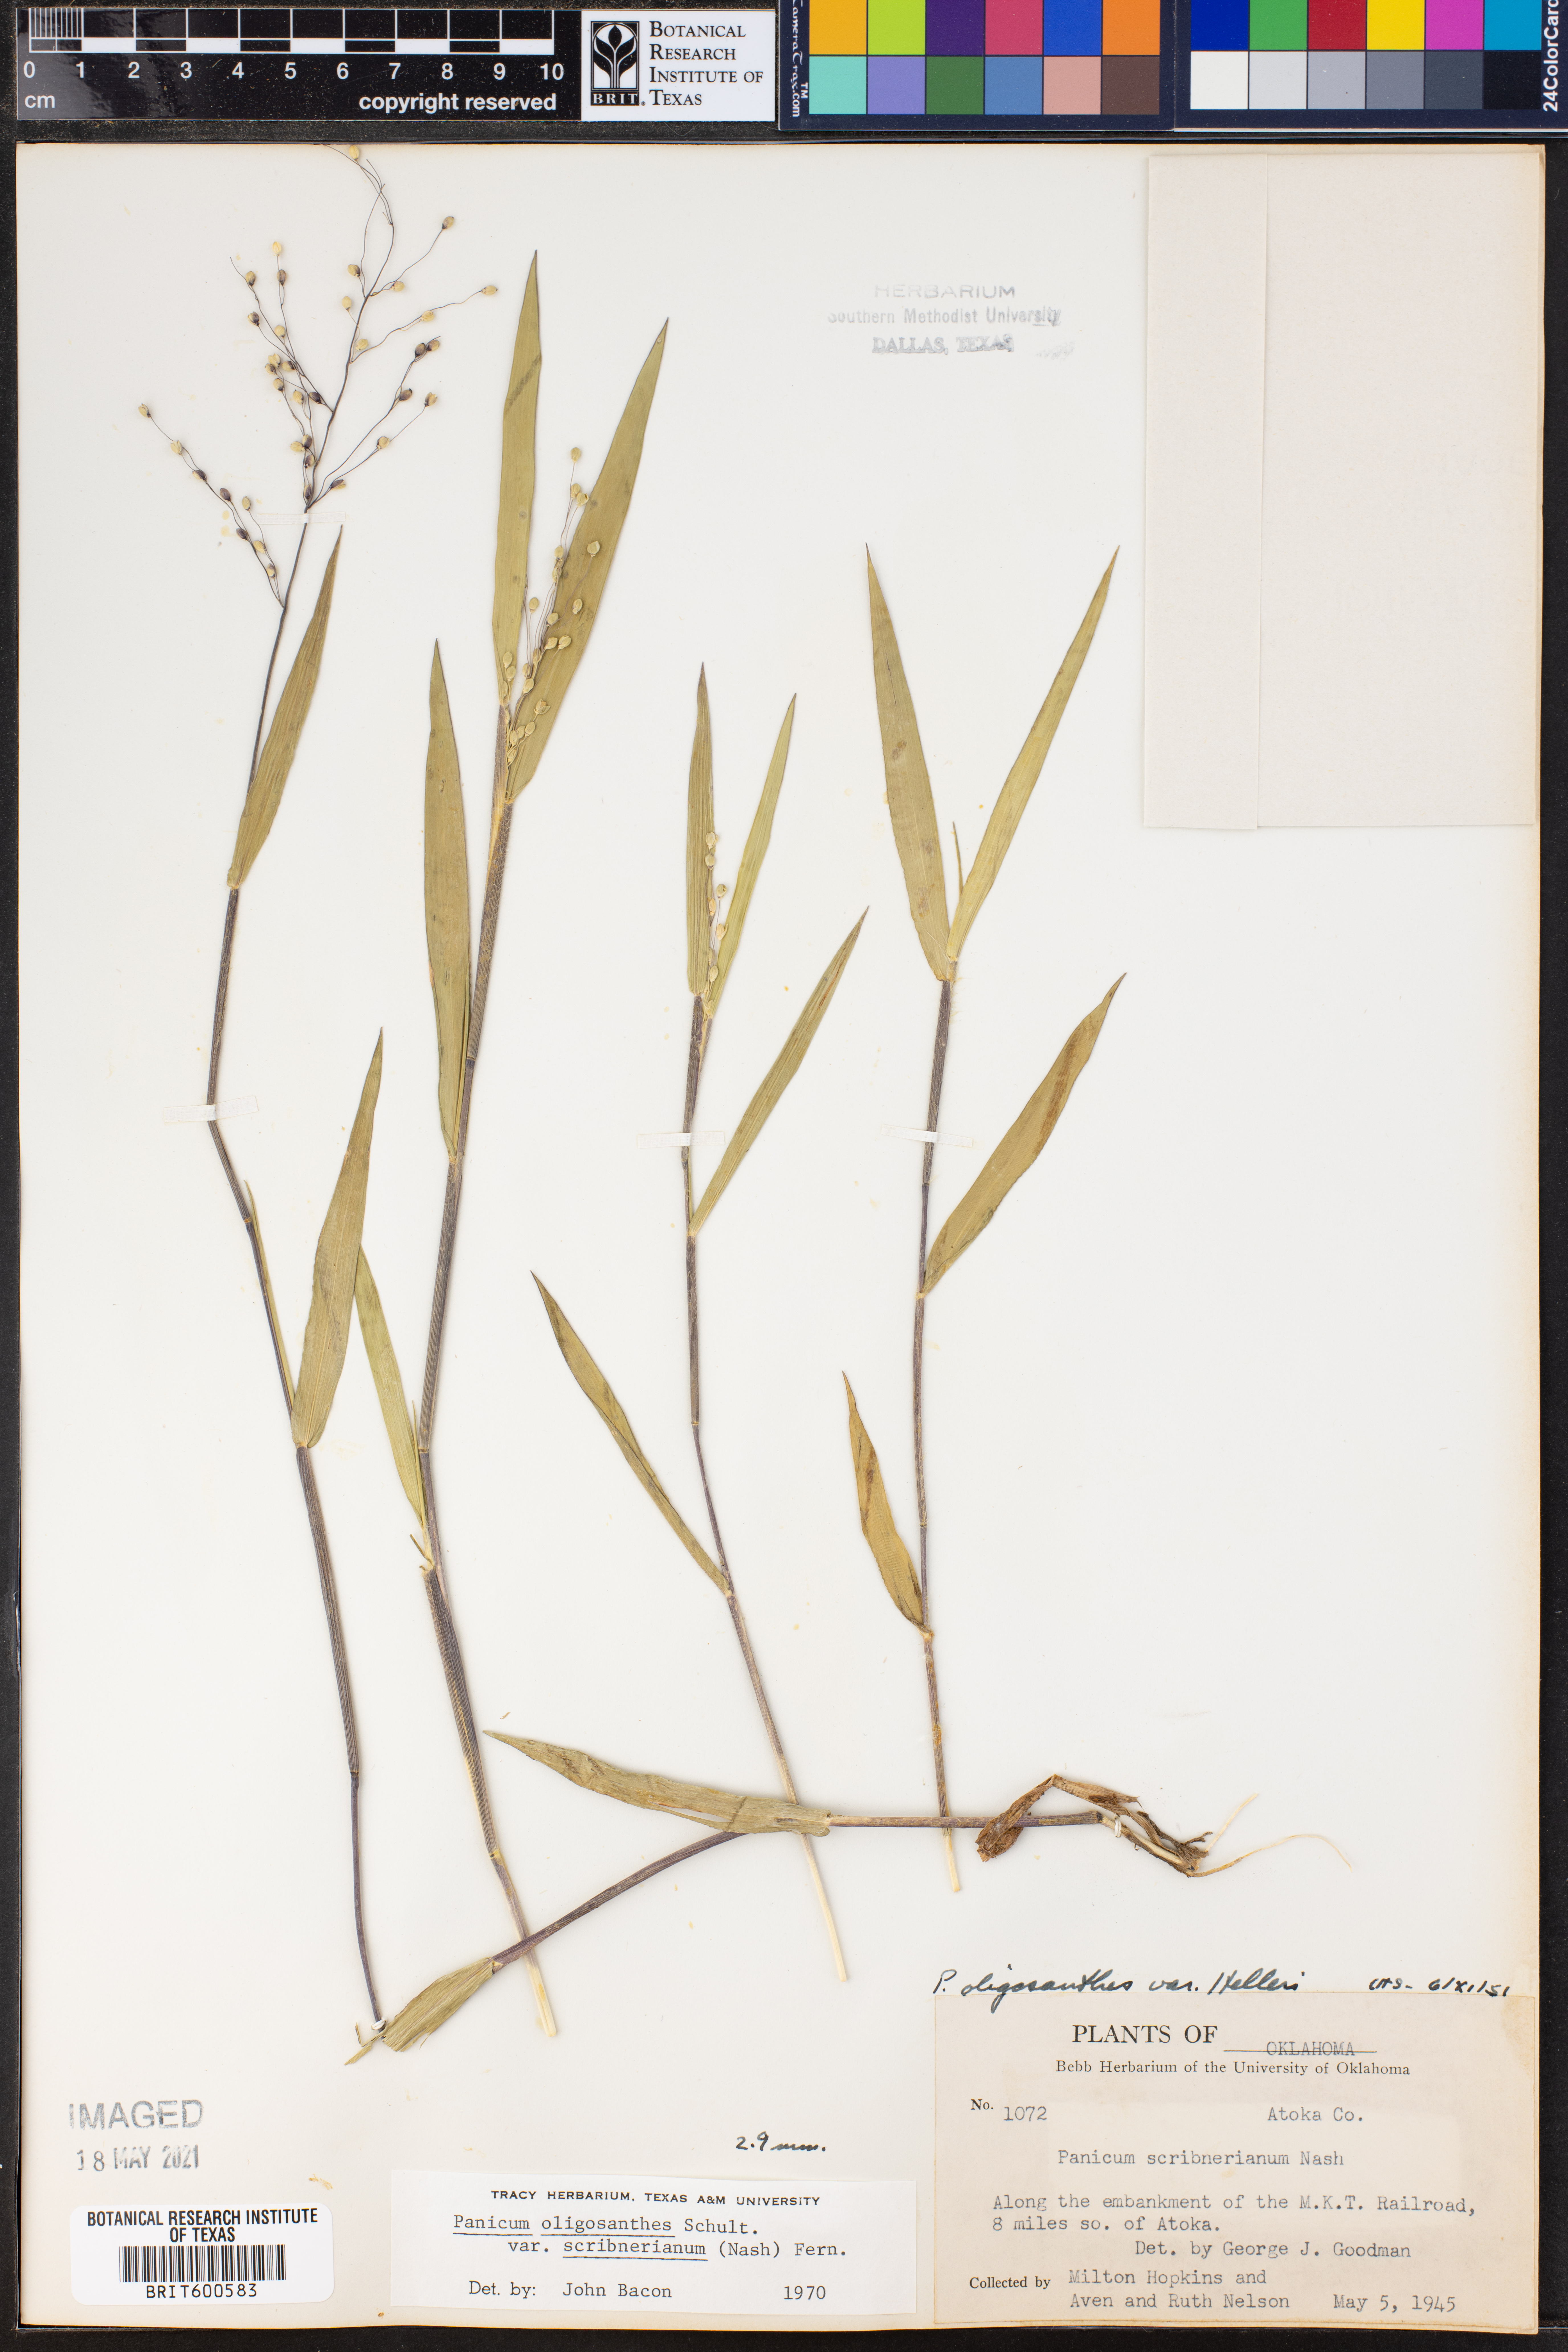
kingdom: Plantae
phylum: Tracheophyta
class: Liliopsida
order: Poales
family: Poaceae
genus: Dichanthelium
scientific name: Dichanthelium scribnerianum
